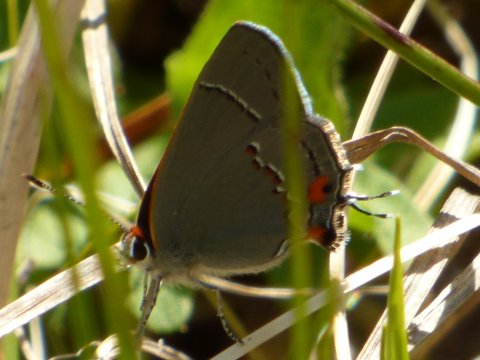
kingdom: Animalia
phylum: Arthropoda
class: Insecta
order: Lepidoptera
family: Lycaenidae
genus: Strymon
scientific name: Strymon melinus
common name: Gray Hairstreak
